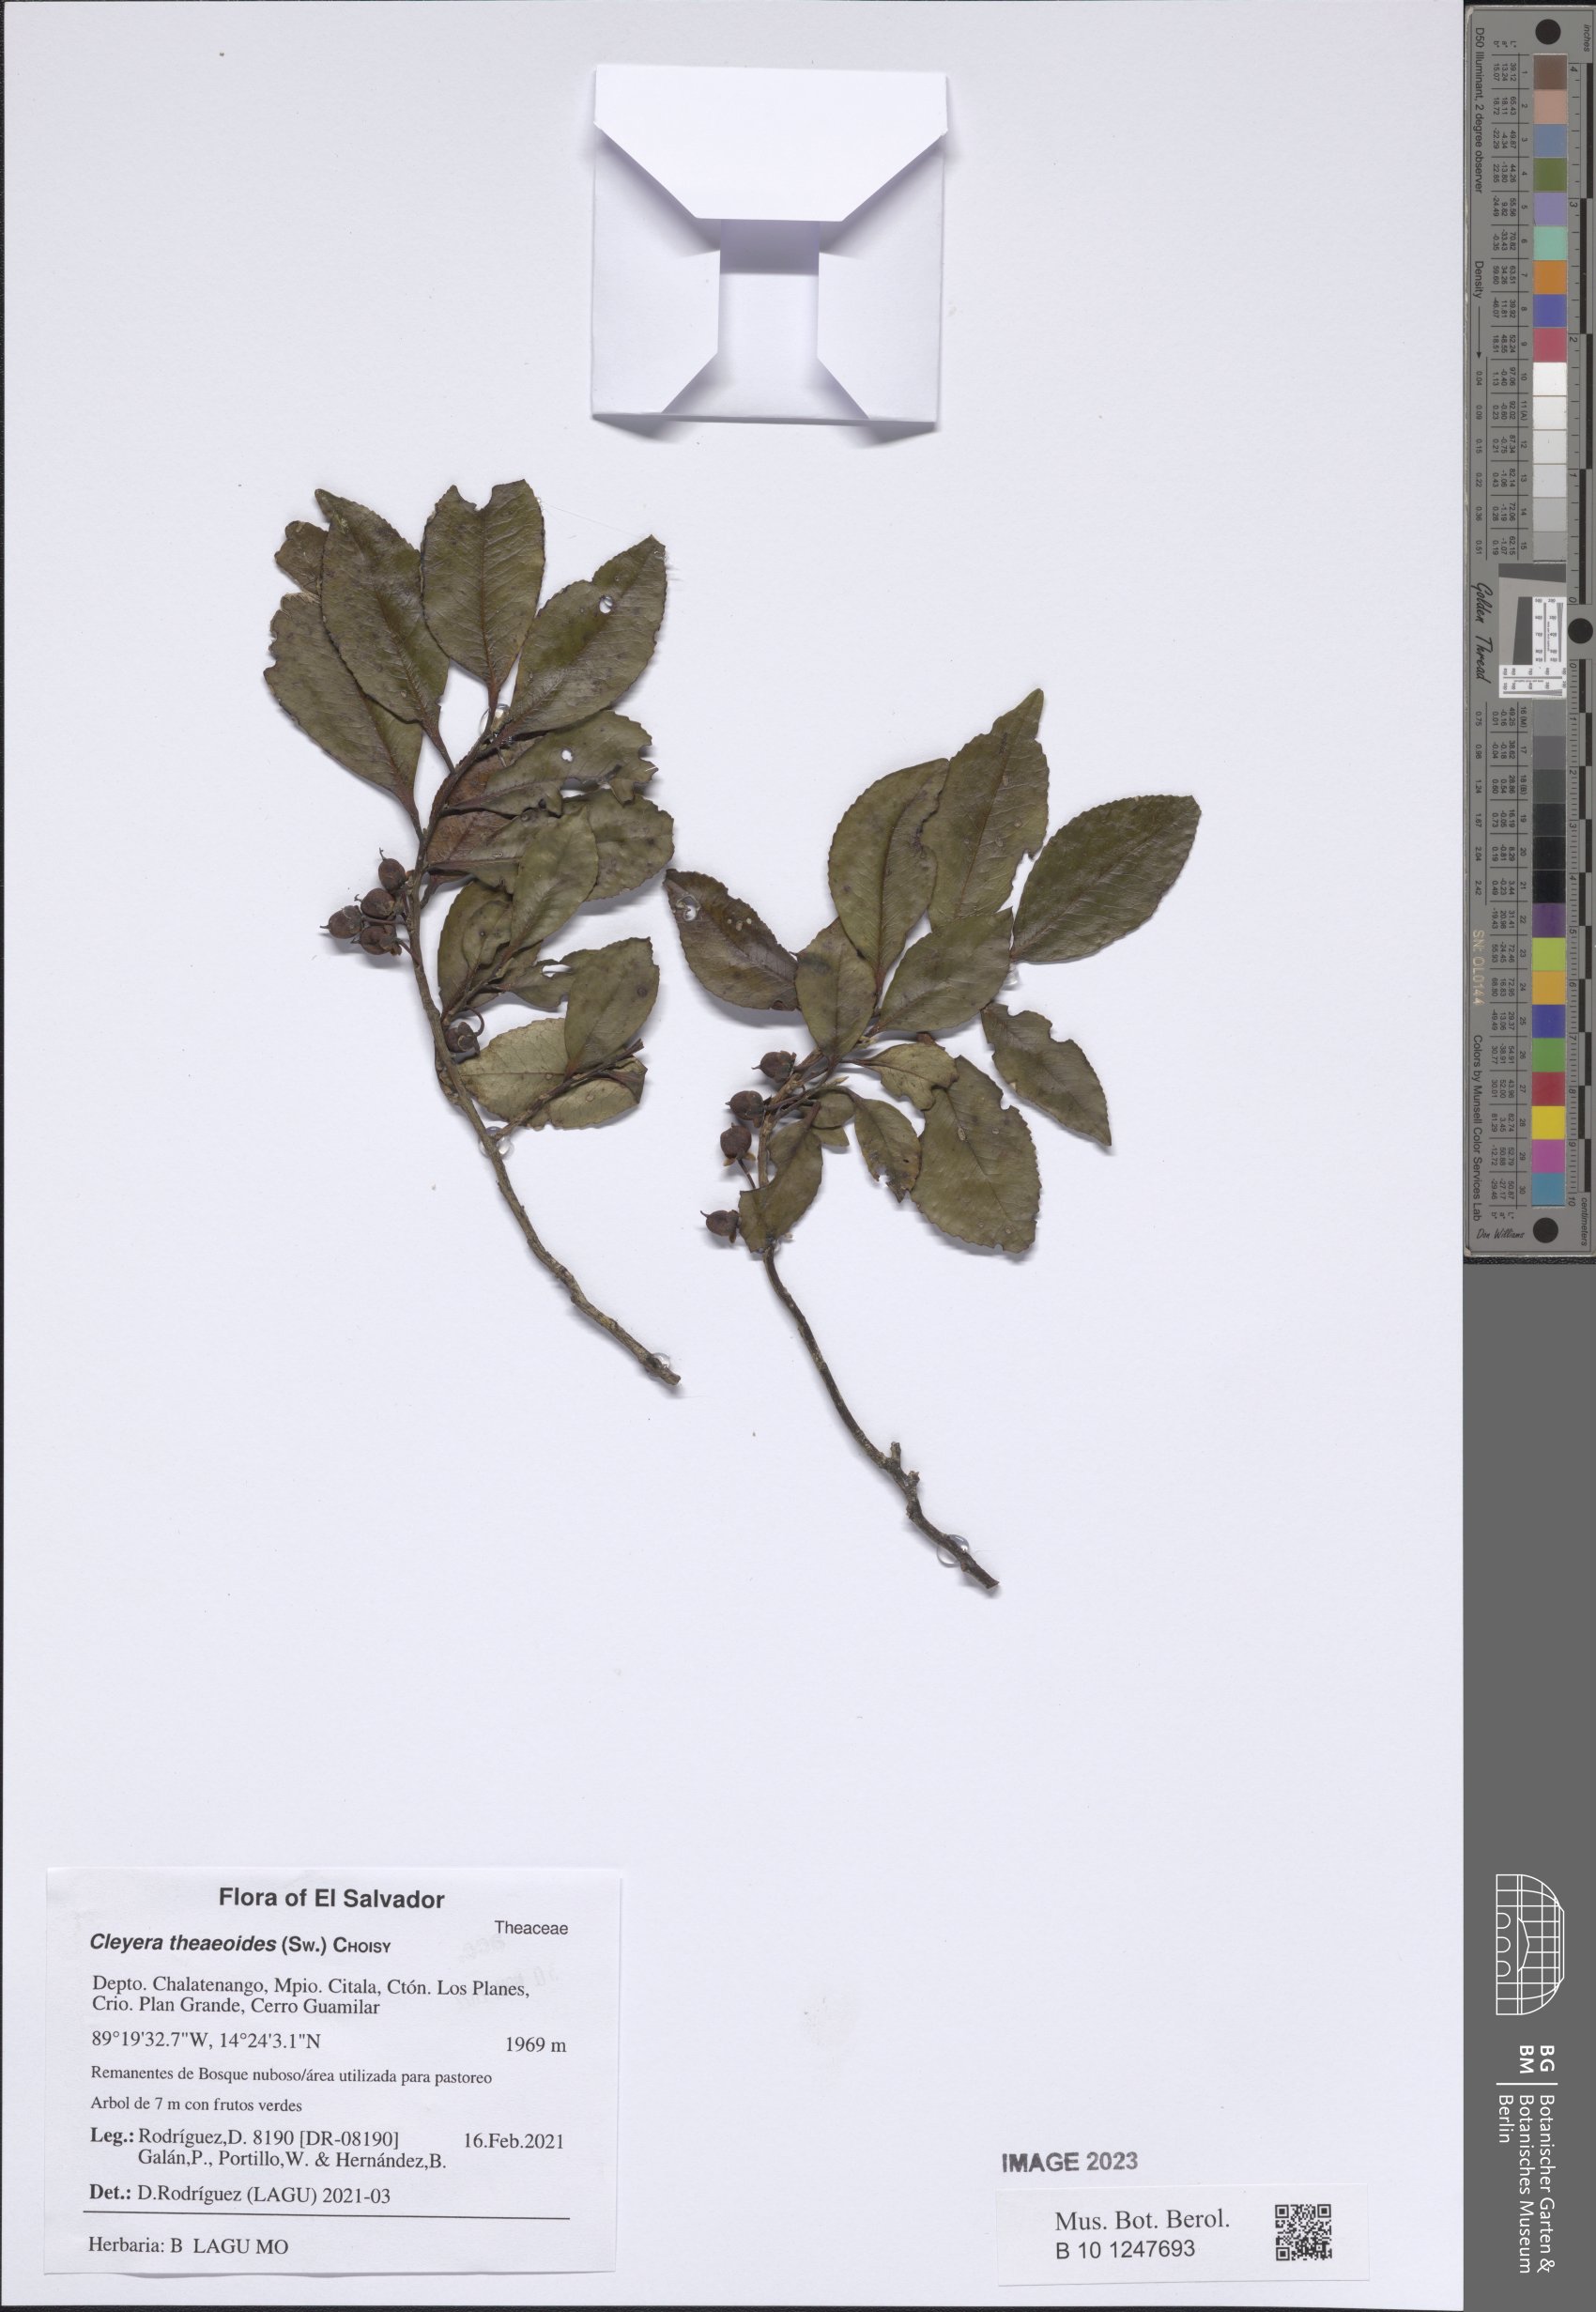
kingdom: Plantae
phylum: Tracheophyta
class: Magnoliopsida
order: Ericales
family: Pentaphylacaceae
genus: Cleyera
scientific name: Cleyera theaeoides
